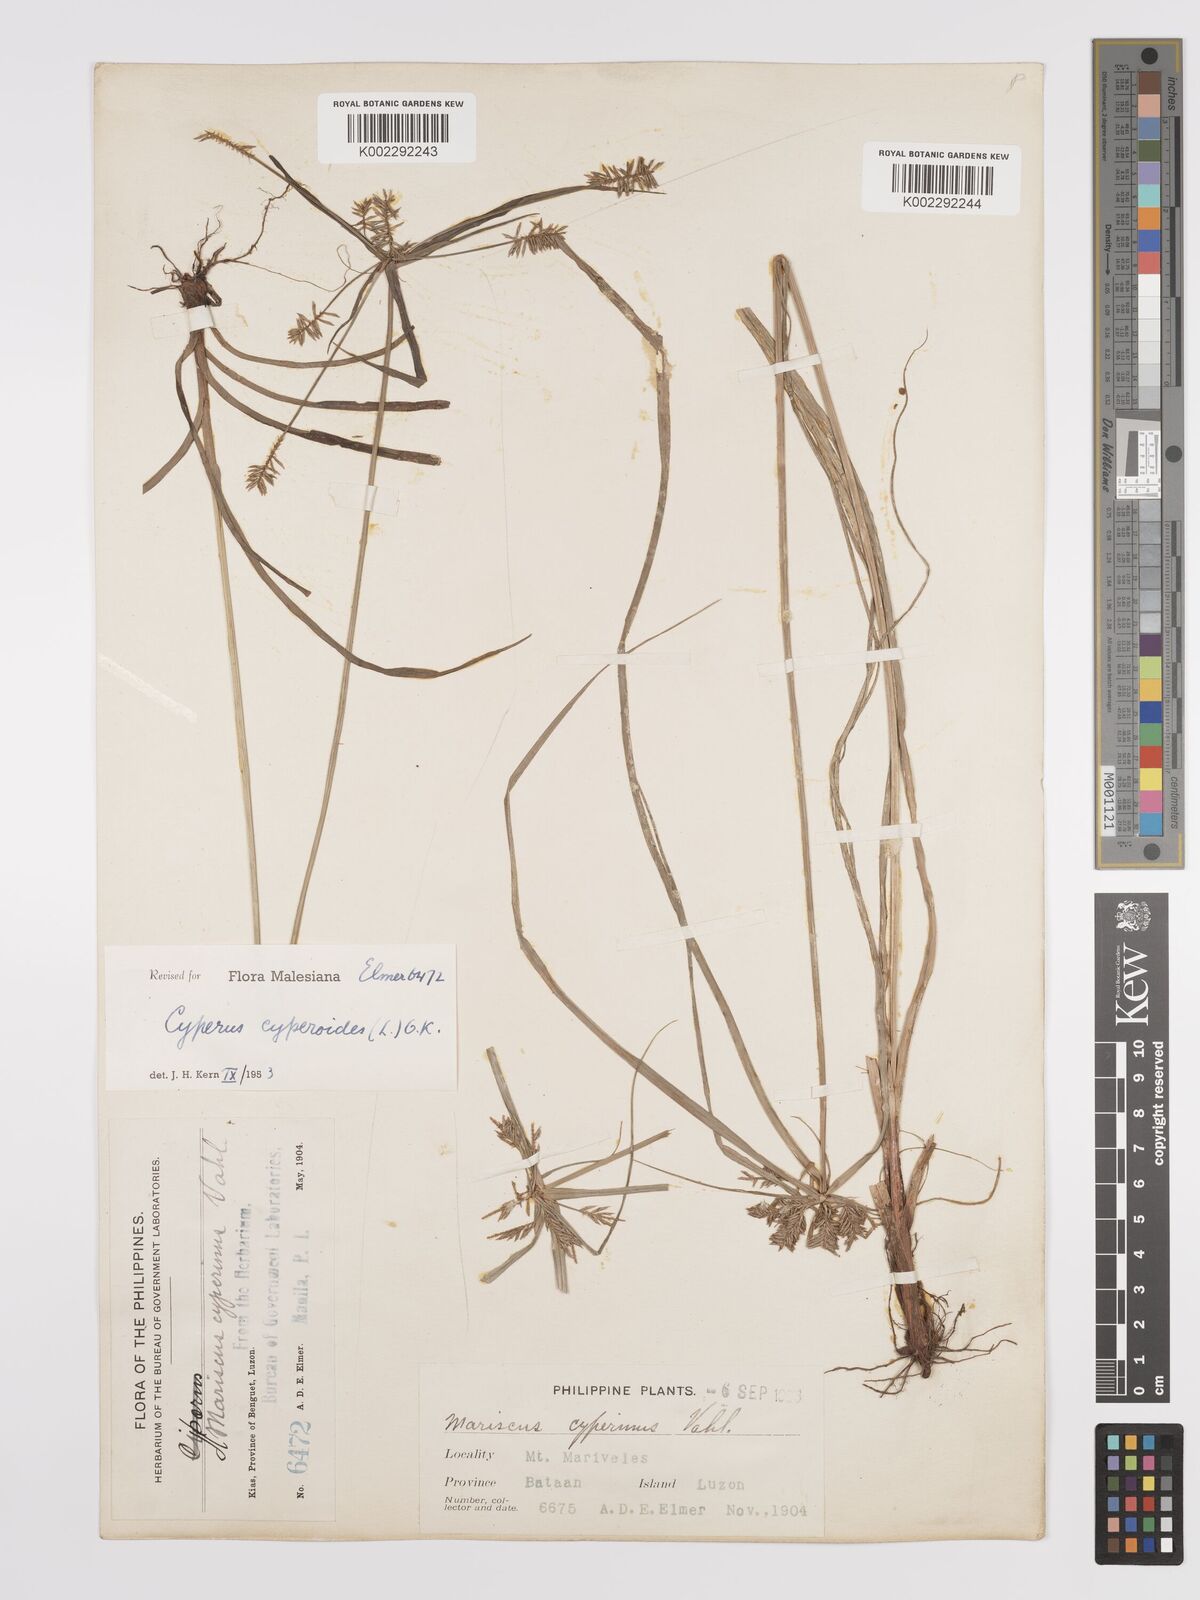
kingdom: Plantae
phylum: Tracheophyta
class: Liliopsida
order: Poales
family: Cyperaceae
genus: Cyperus
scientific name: Cyperus cyperoides
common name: Pacific island flat sedge
